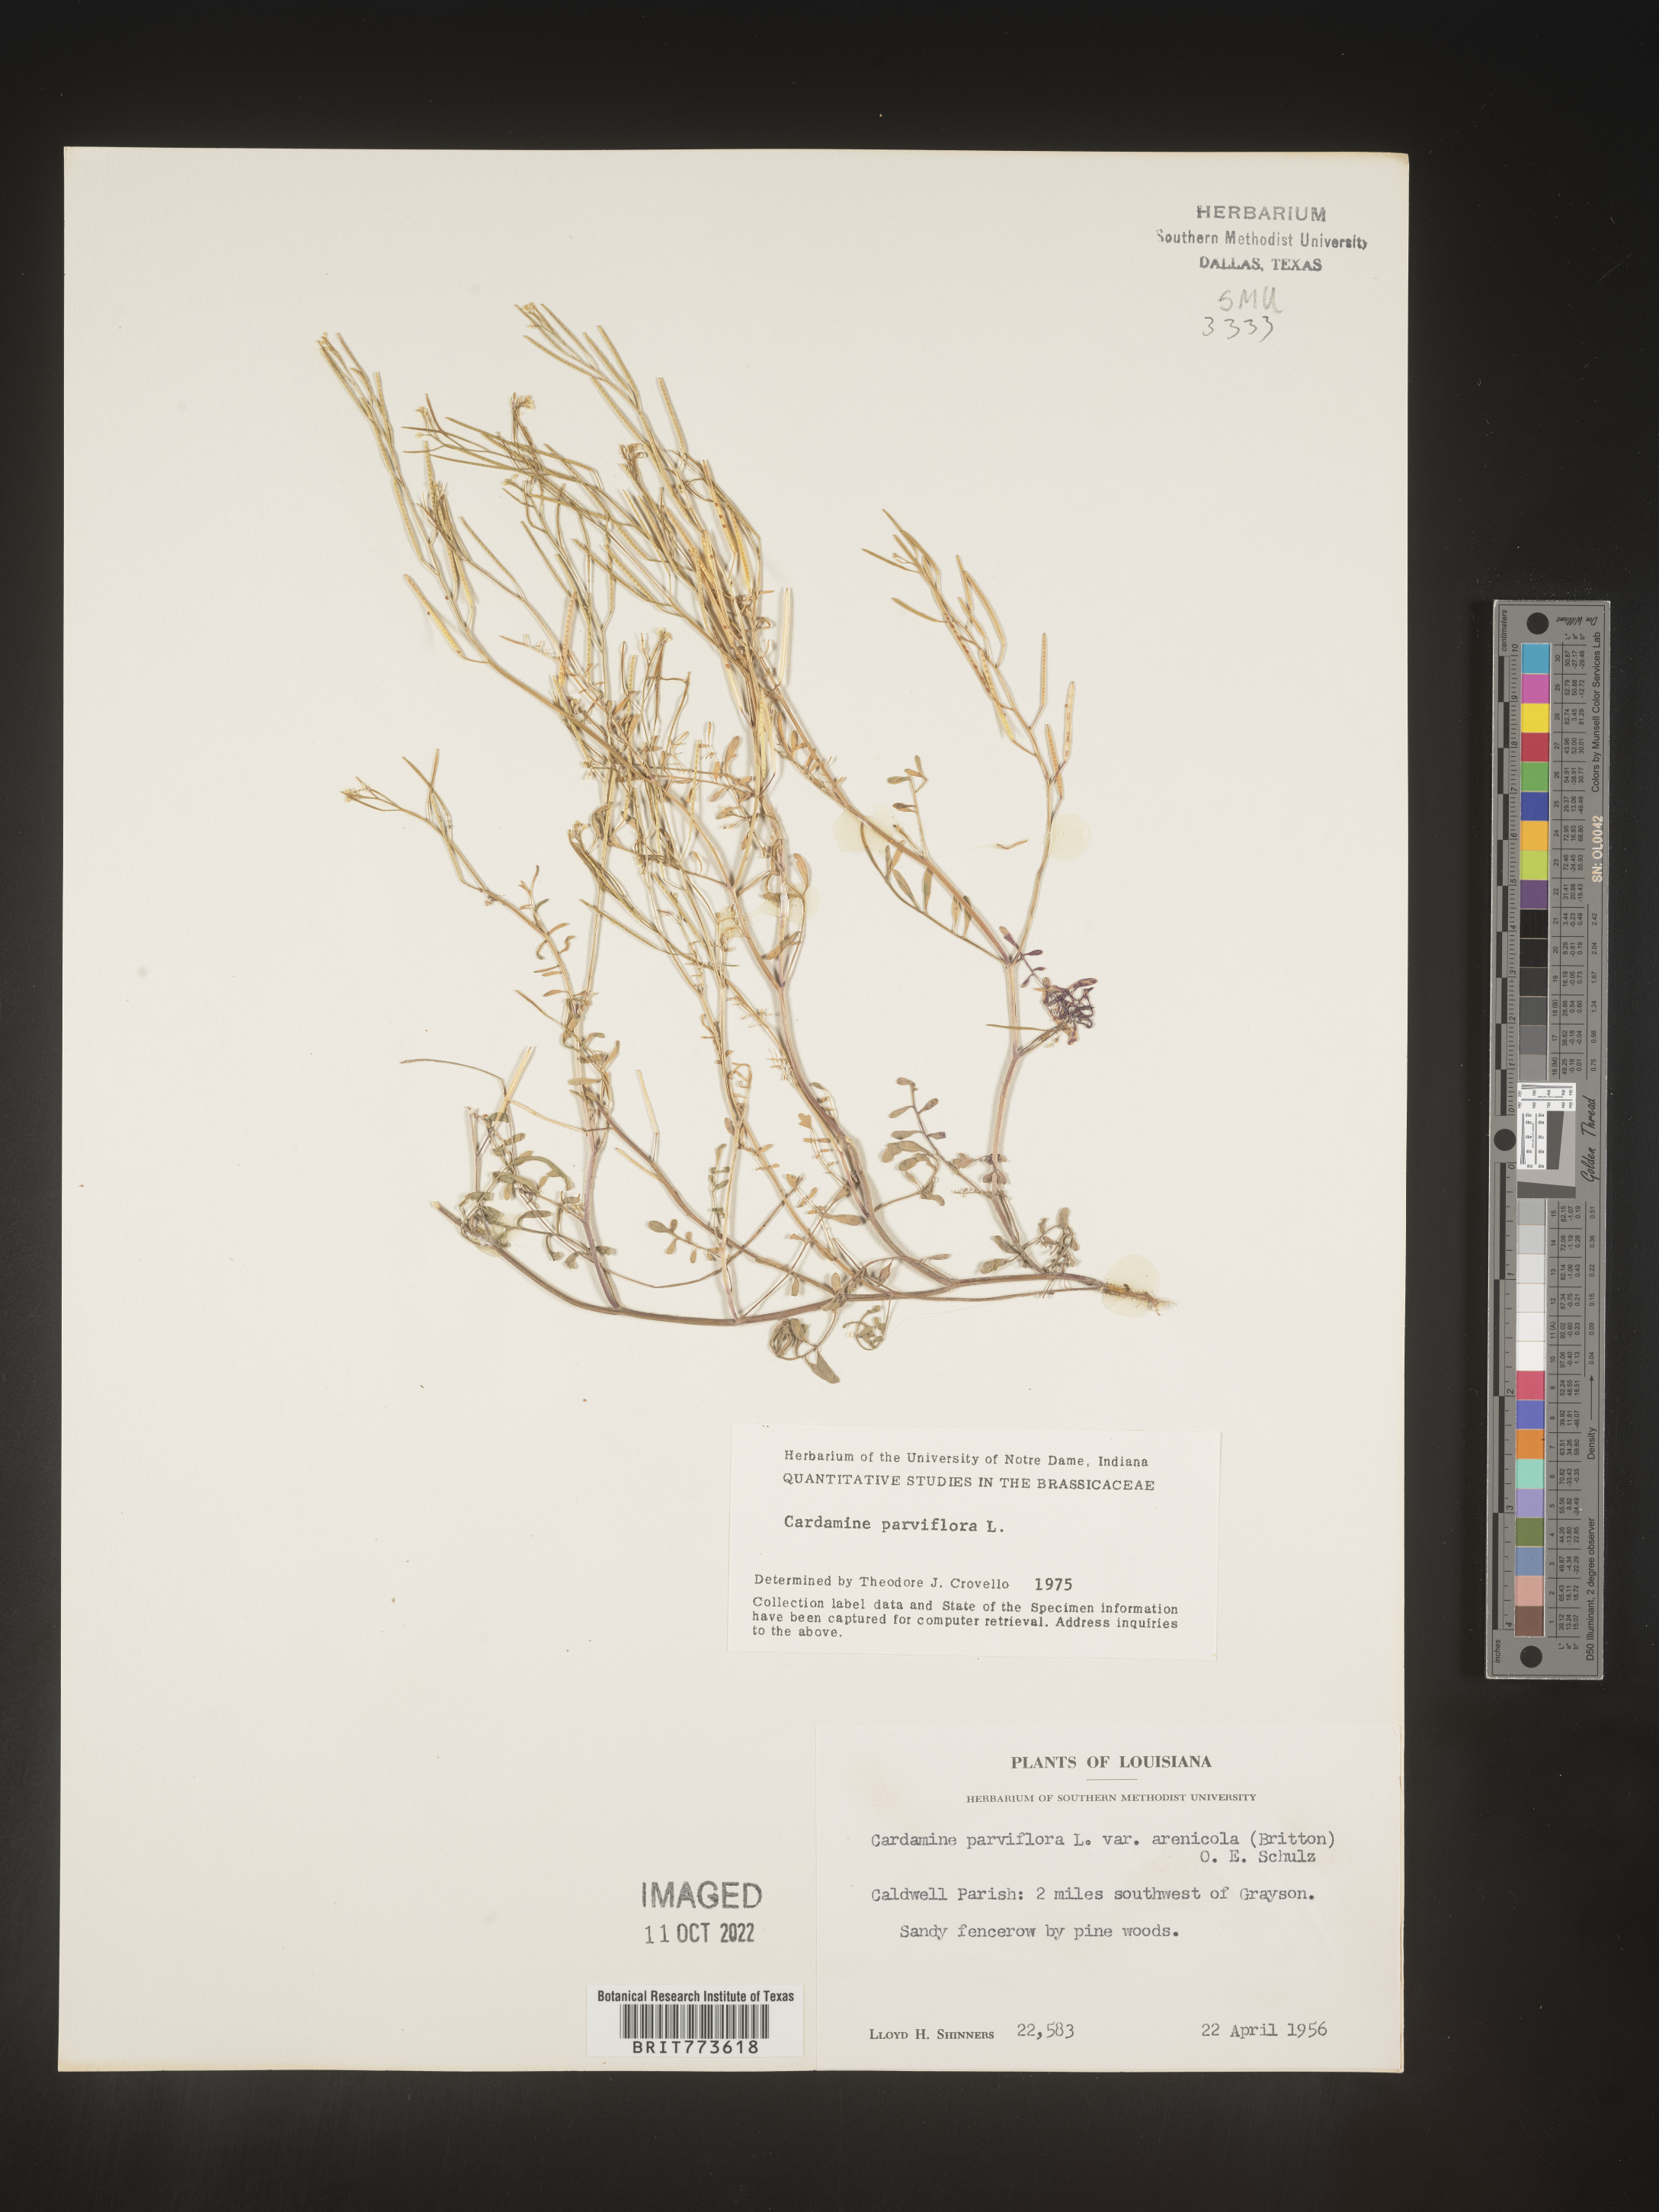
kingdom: Plantae
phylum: Tracheophyta
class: Magnoliopsida
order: Brassicales
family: Brassicaceae
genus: Cardamine
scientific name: Cardamine parviflora
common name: Sand bittercress
